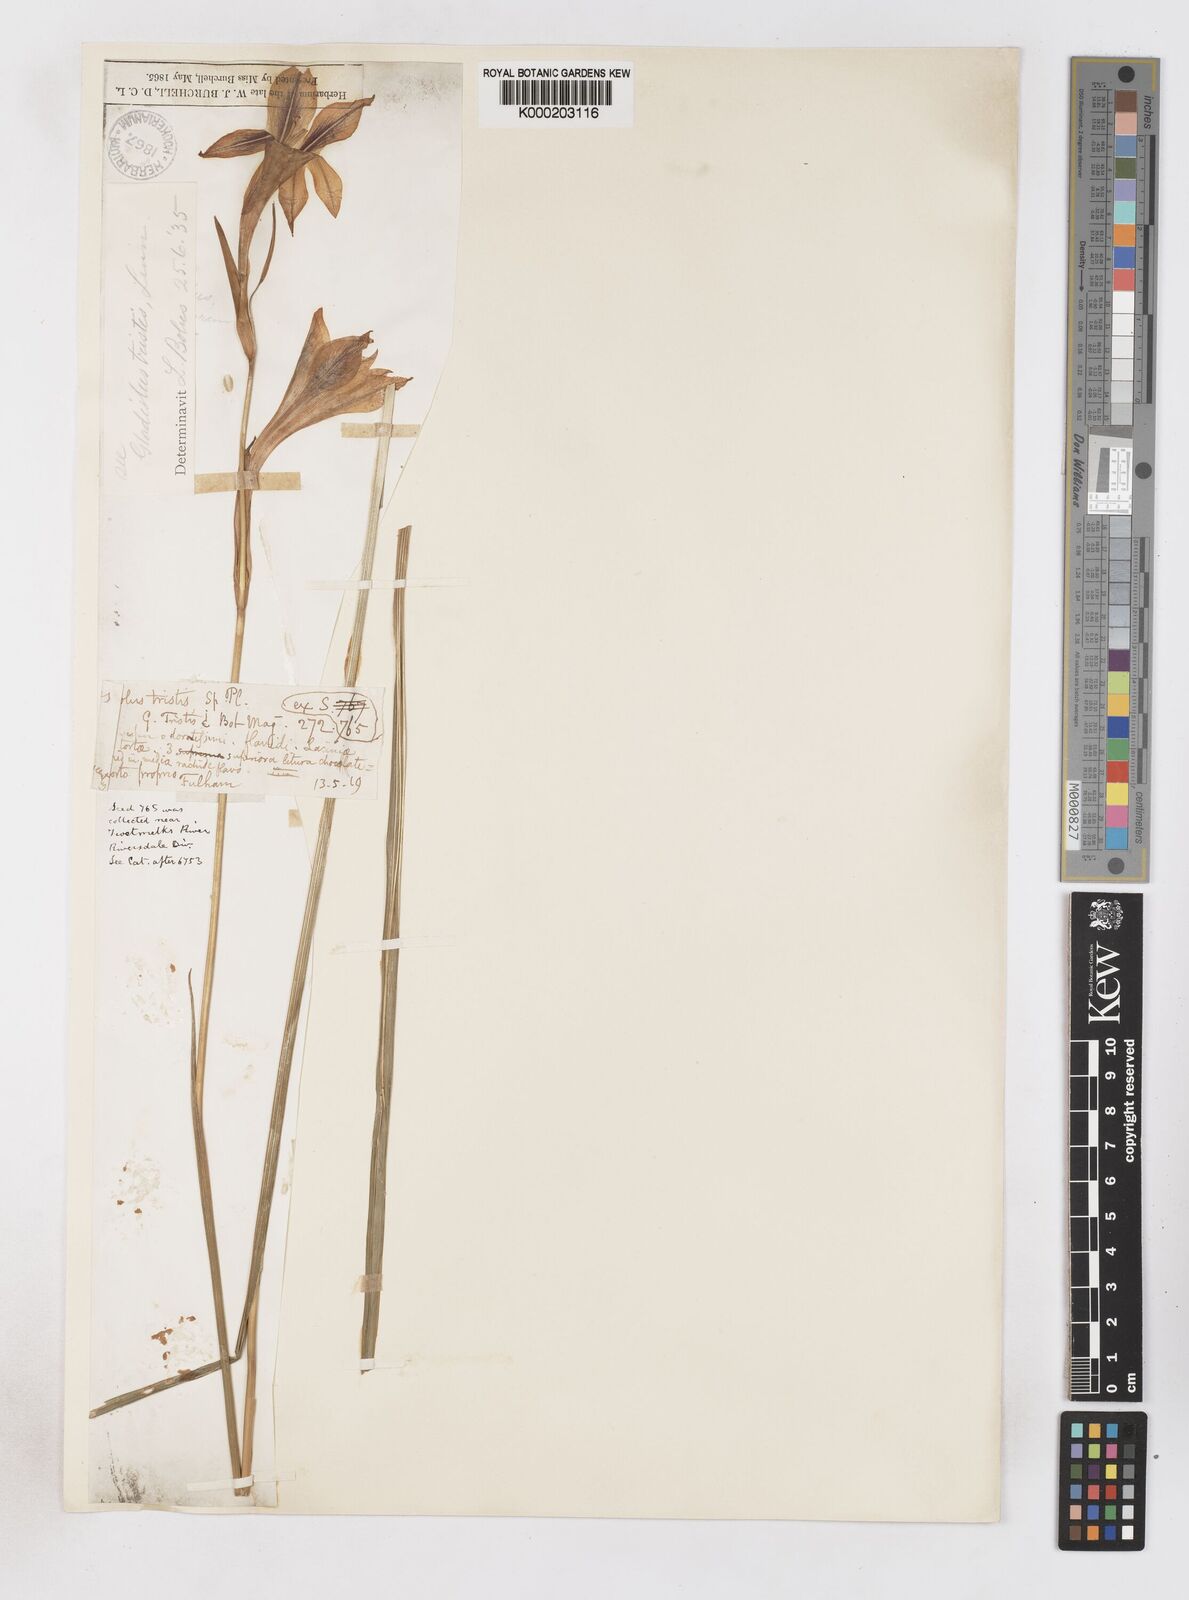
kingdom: Plantae
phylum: Tracheophyta
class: Liliopsida
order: Asparagales
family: Iridaceae
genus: Gladiolus
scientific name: Gladiolus tristis
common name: Ever-flowering gladiolus
